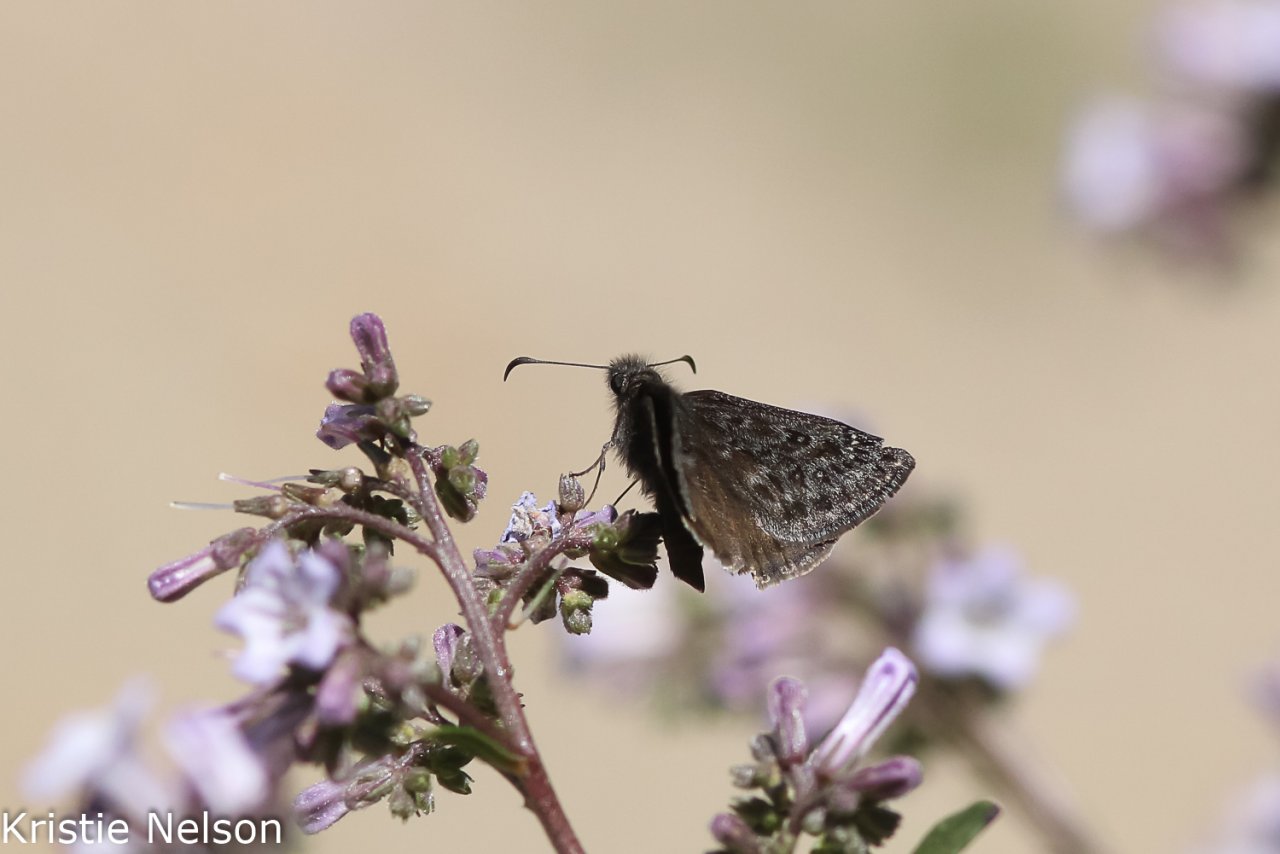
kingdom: Animalia
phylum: Arthropoda
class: Insecta
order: Lepidoptera
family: Hesperiidae
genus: Gesta
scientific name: Gesta
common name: Persius Duskywing
